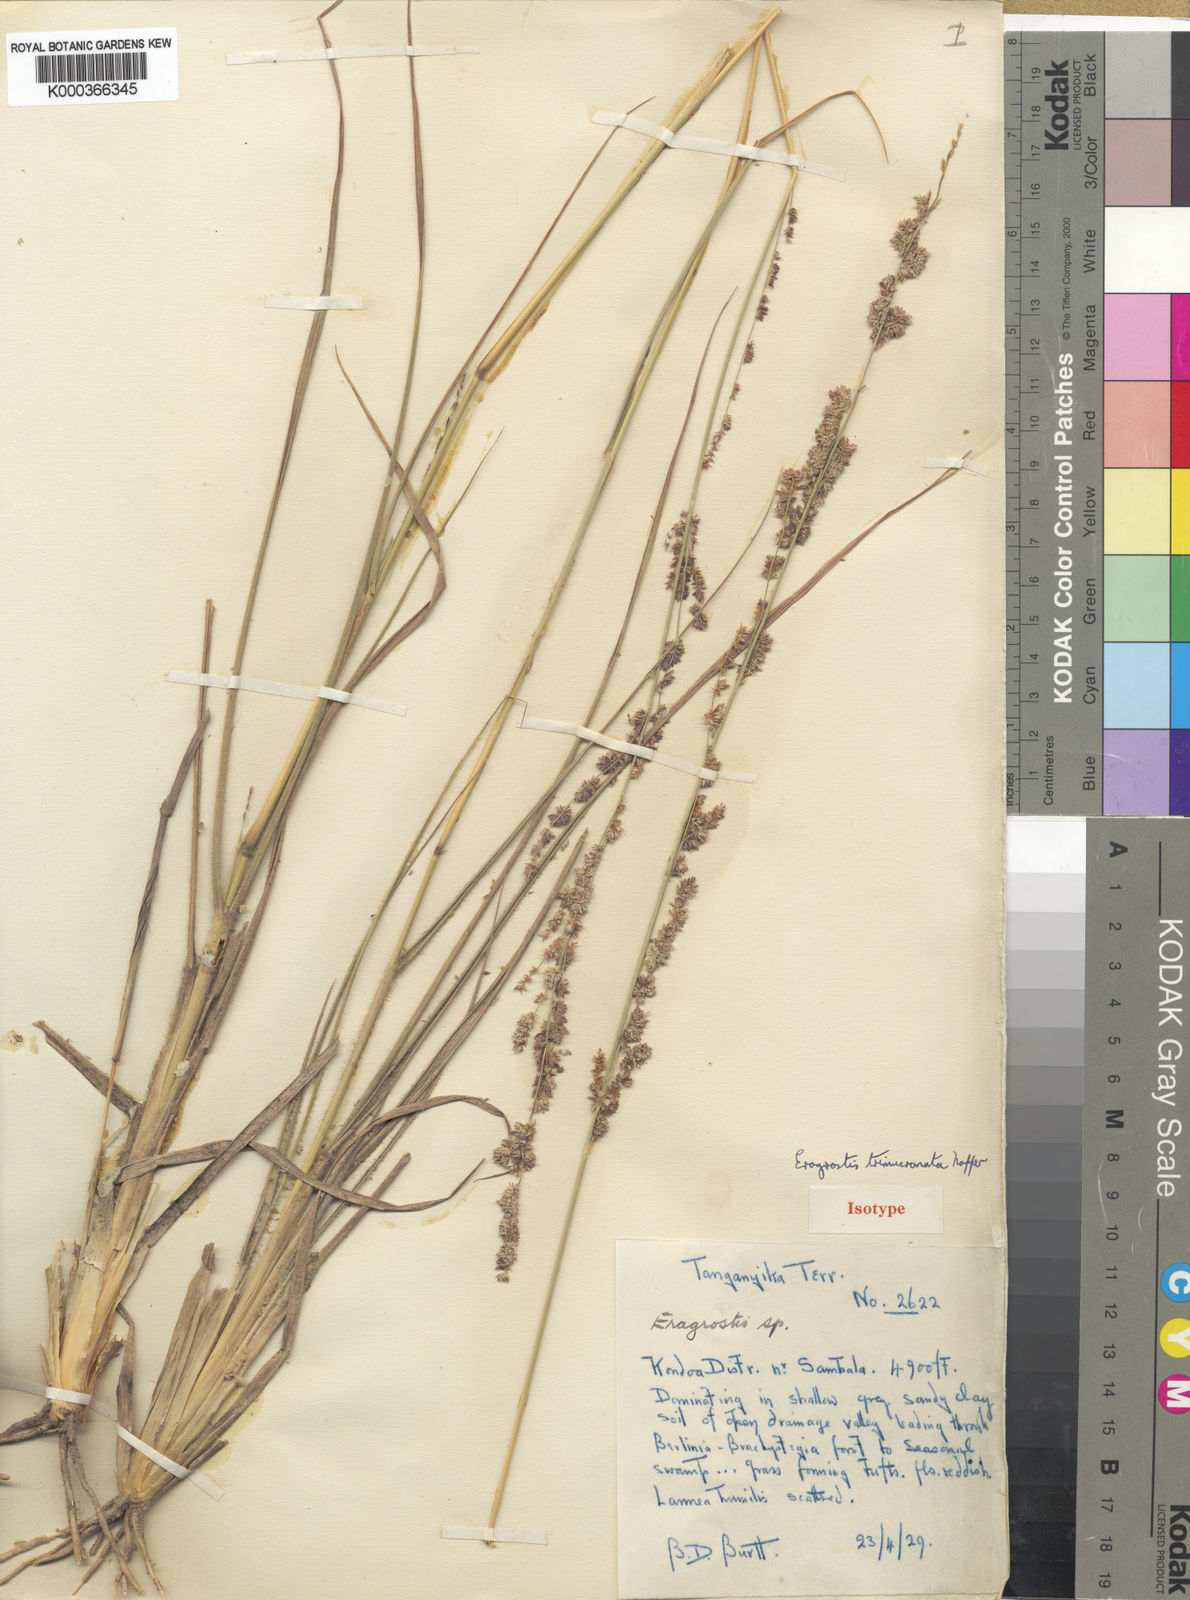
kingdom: Plantae
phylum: Tracheophyta
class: Liliopsida
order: Poales
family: Poaceae
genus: Eragrostis
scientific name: Eragrostis trimucronata
